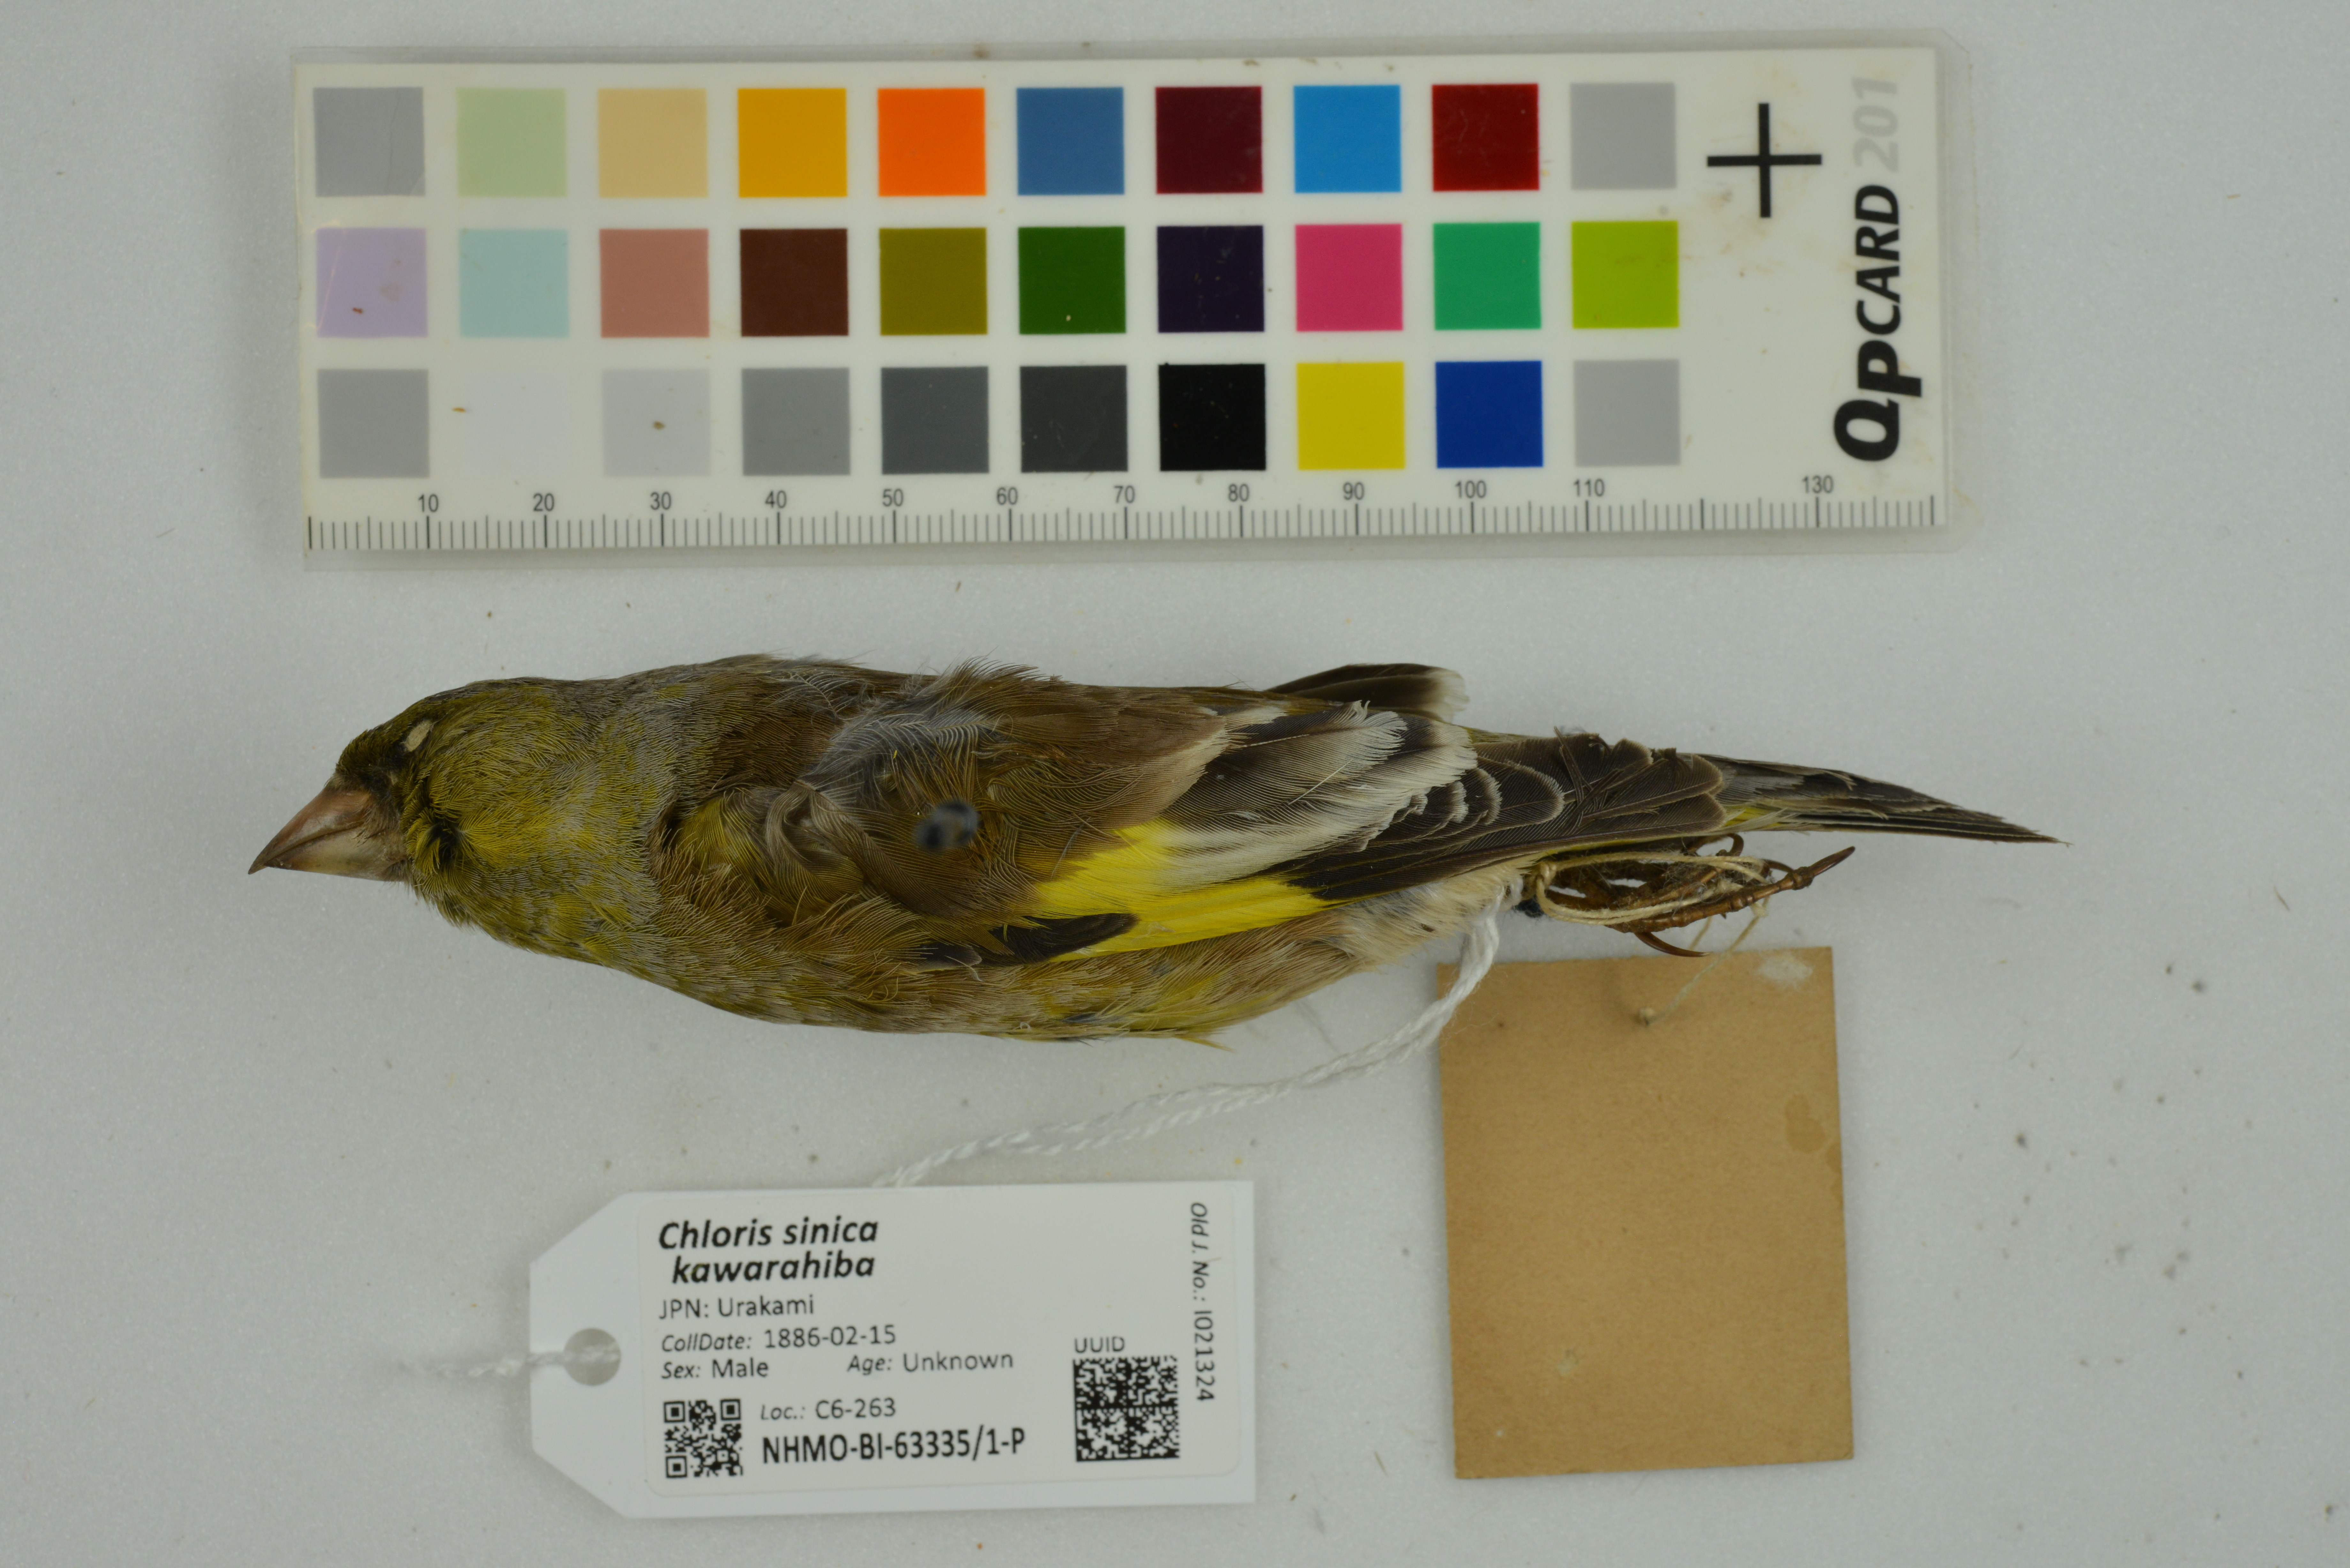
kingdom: Plantae
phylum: Tracheophyta
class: Liliopsida
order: Poales
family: Poaceae
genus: Chloris
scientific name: Chloris sinica
